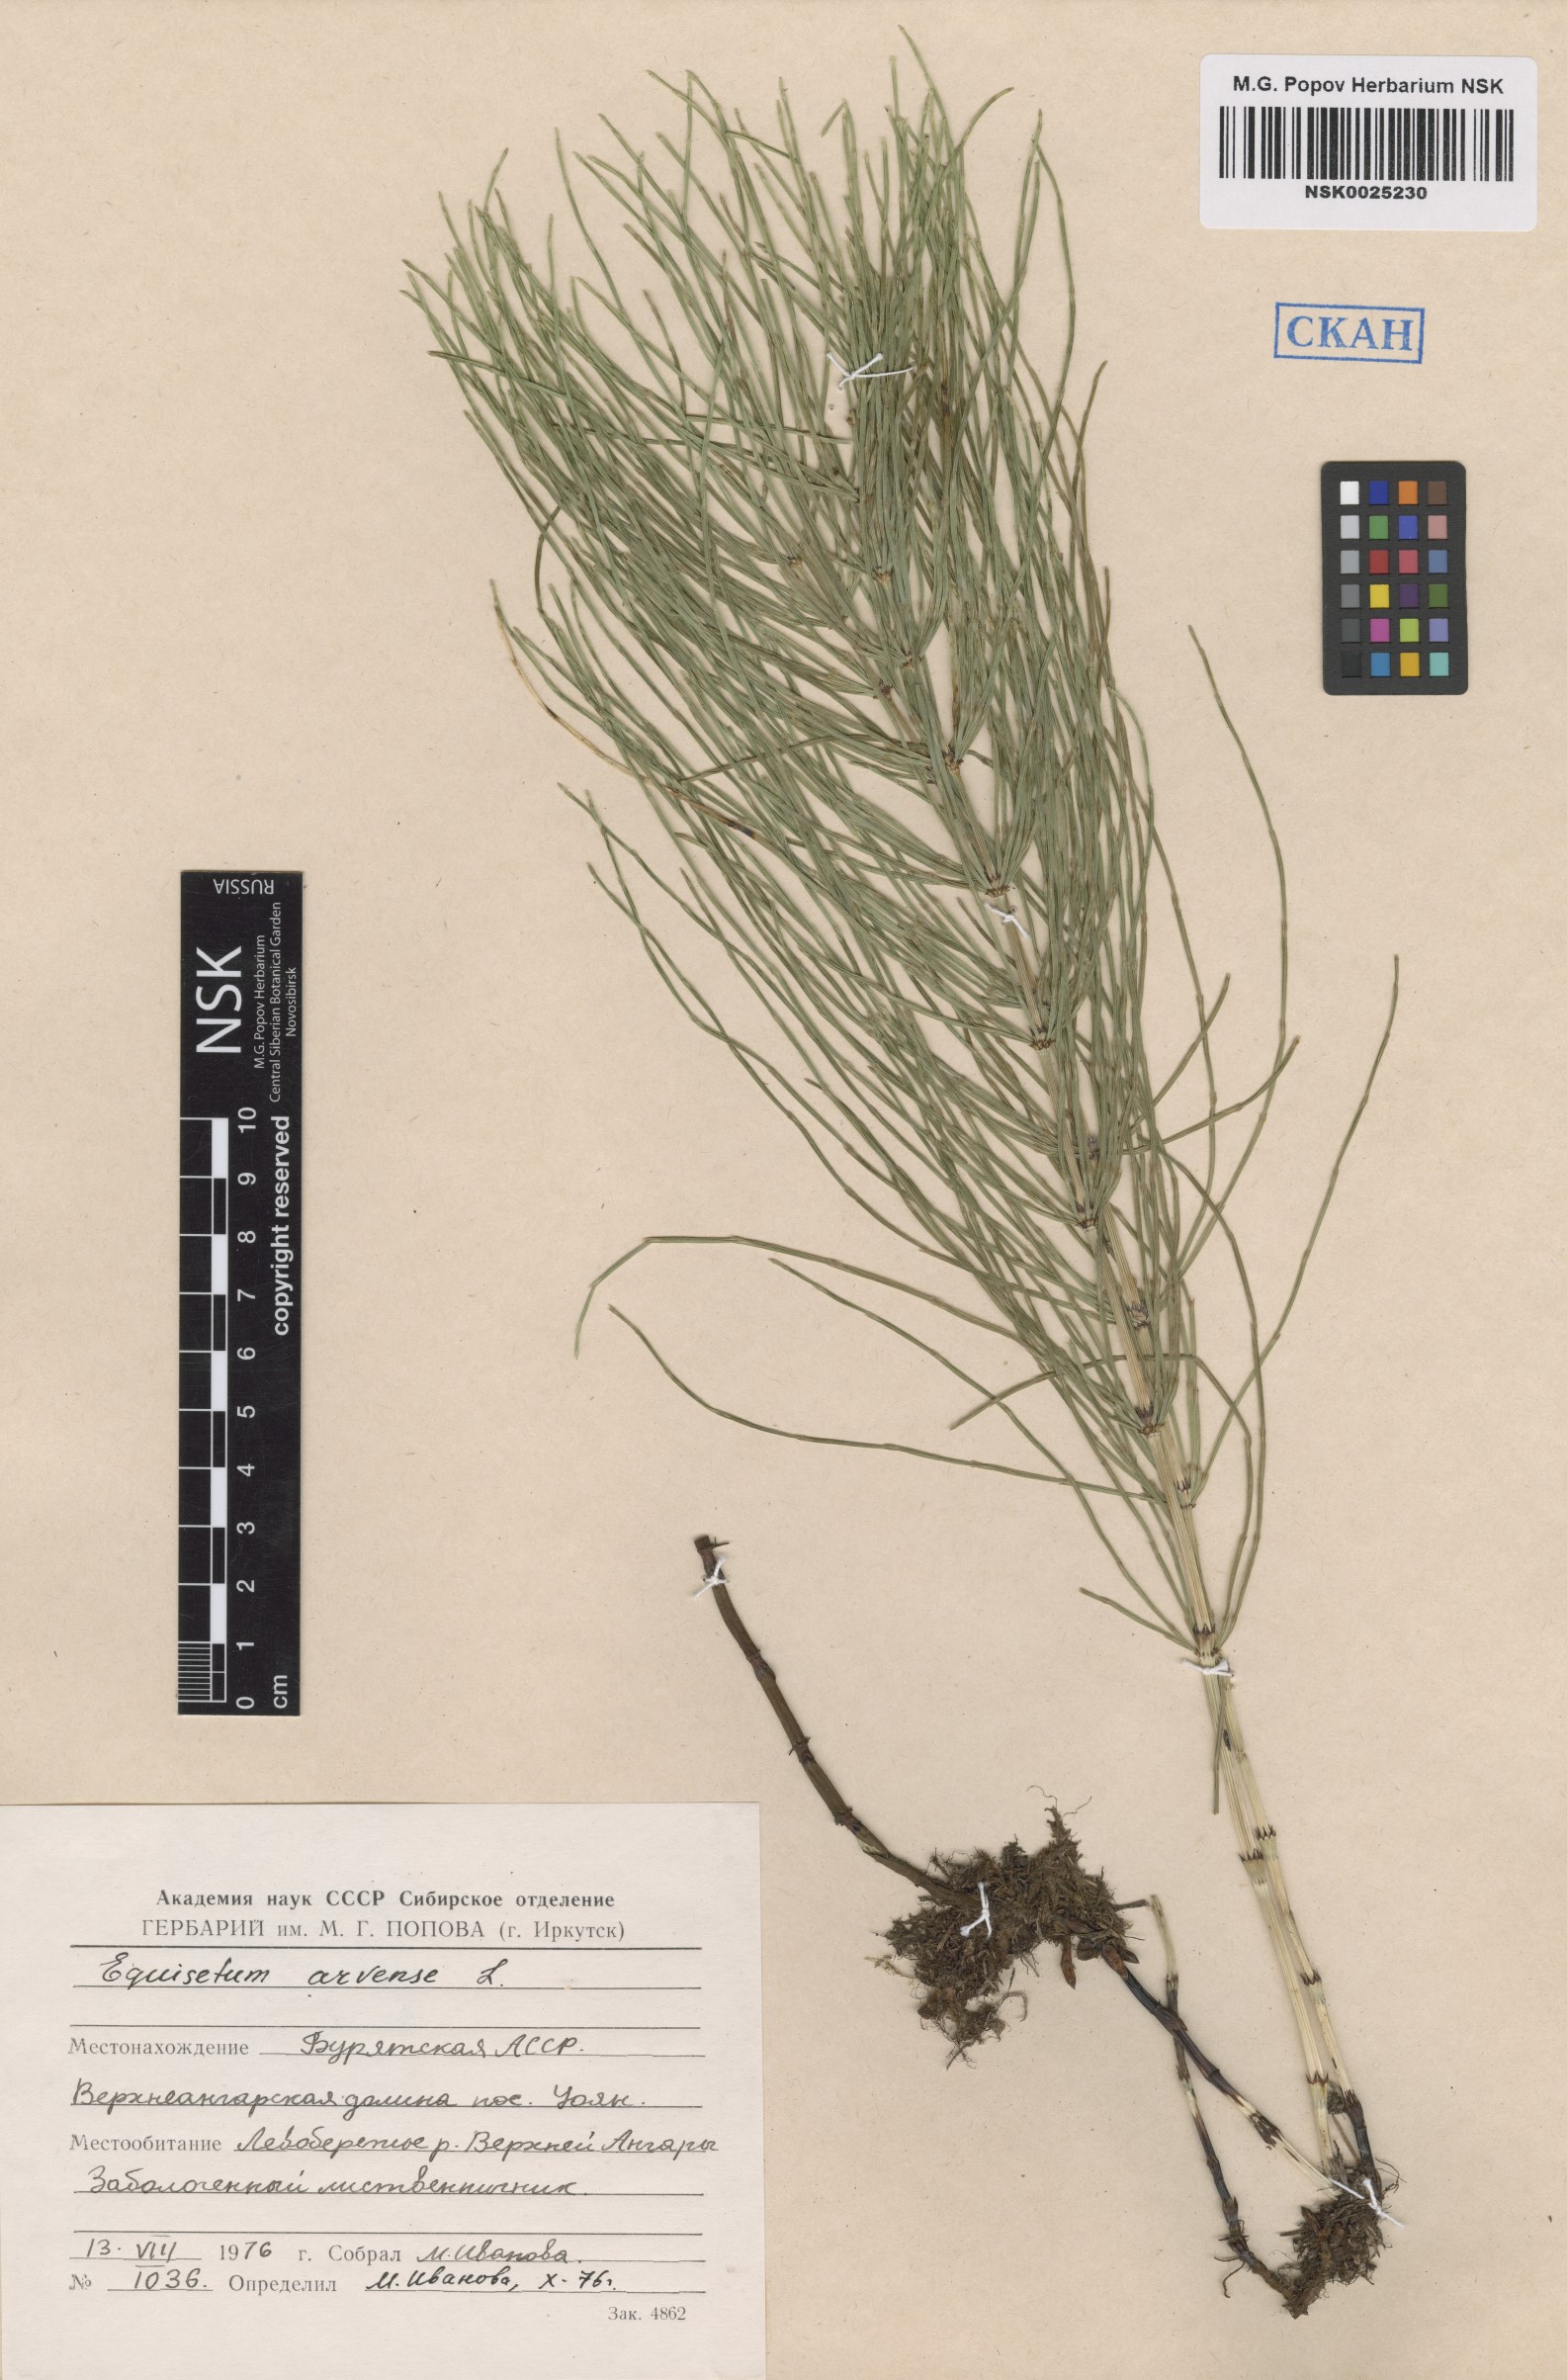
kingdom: Plantae
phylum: Tracheophyta
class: Polypodiopsida
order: Equisetales
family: Equisetaceae
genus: Equisetum
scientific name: Equisetum arvense
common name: Field horsetail
